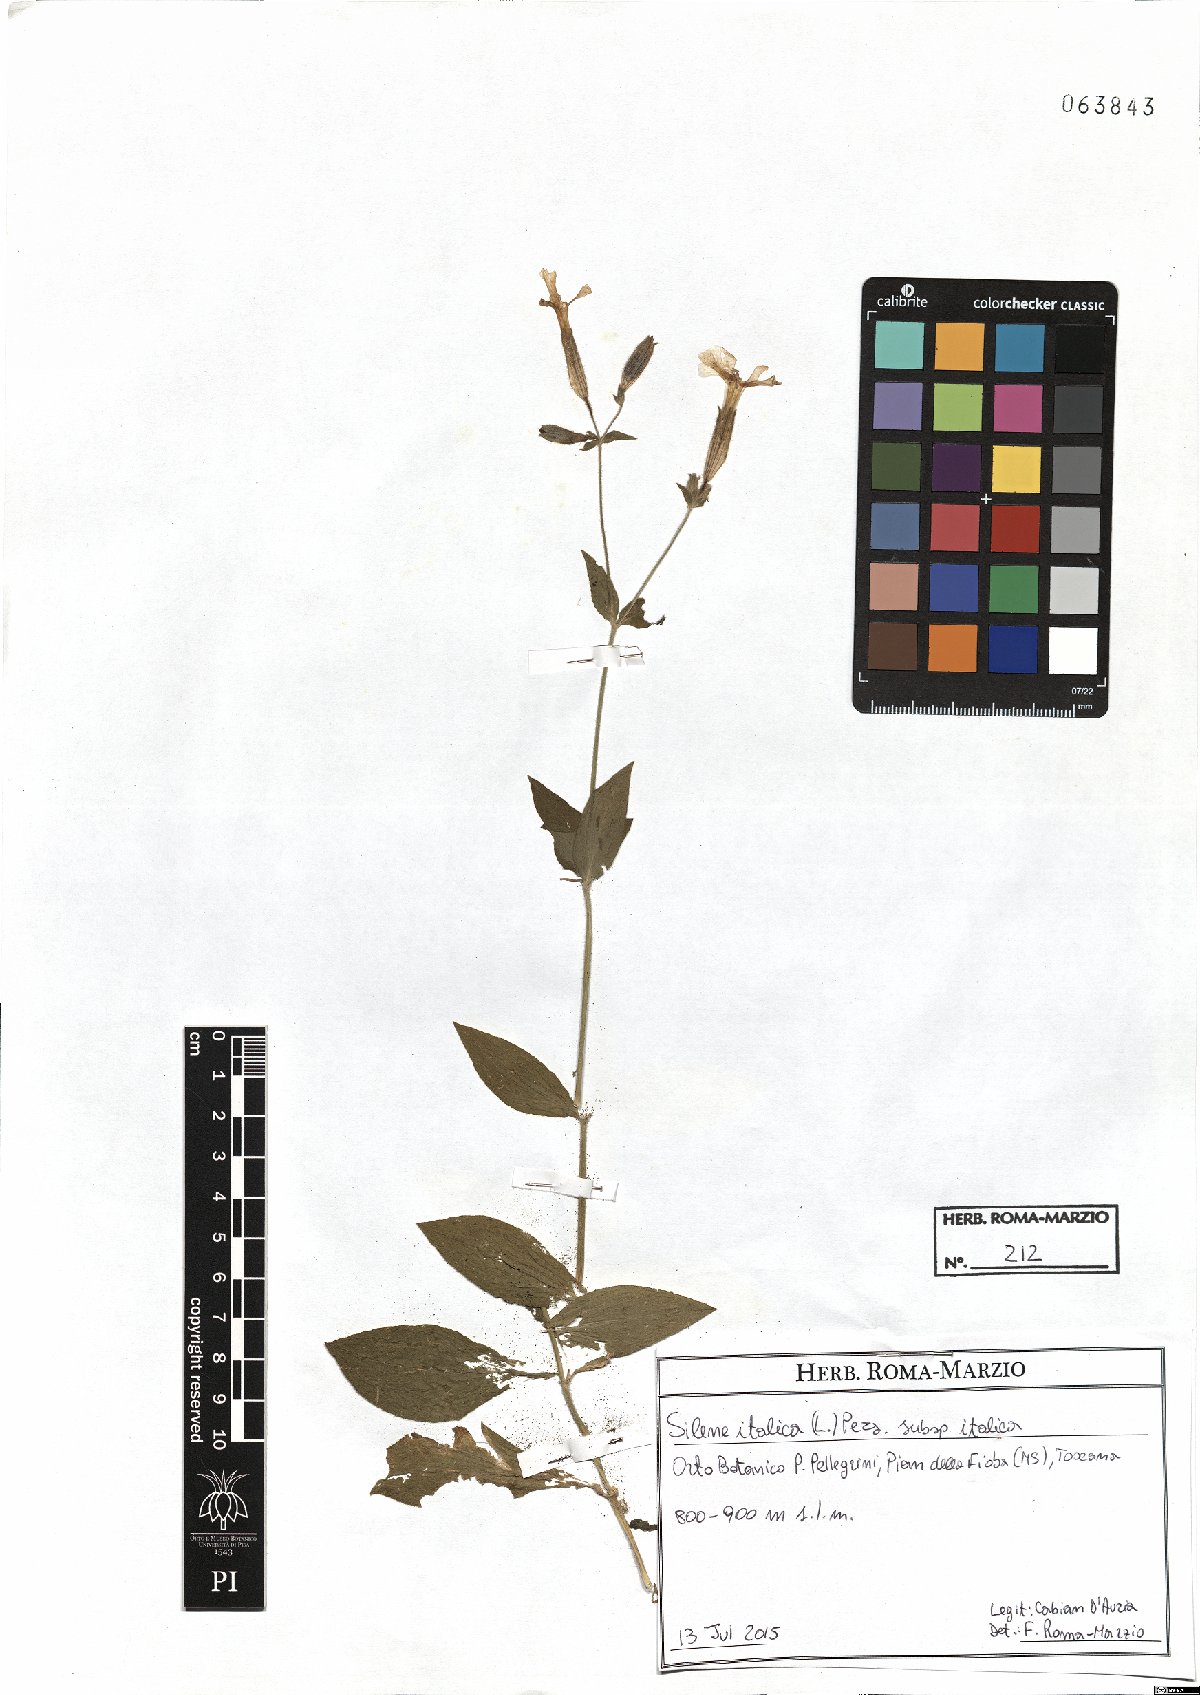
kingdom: Plantae
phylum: Tracheophyta
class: Magnoliopsida
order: Caryophyllales
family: Caryophyllaceae
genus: Silene
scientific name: Silene italica
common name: Italian catchfly
